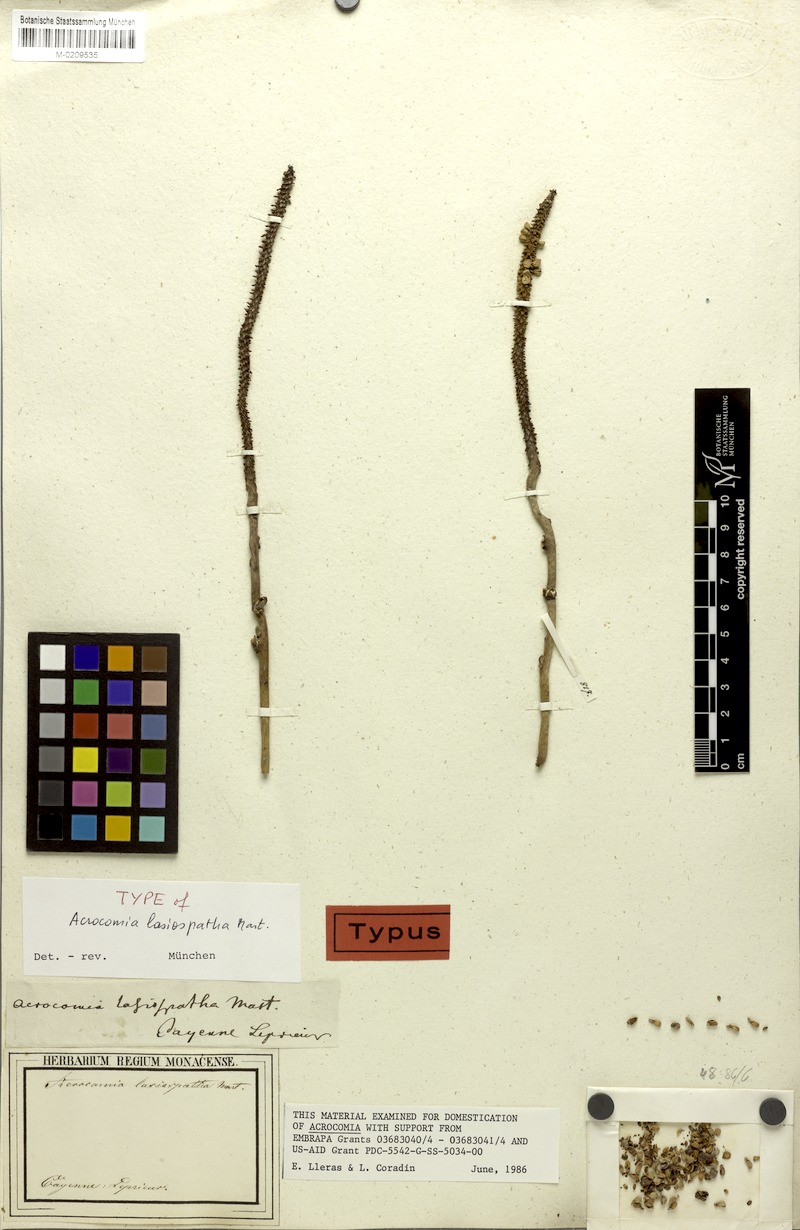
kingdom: Plantae
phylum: Tracheophyta
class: Liliopsida
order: Arecales
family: Arecaceae
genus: Acrocomia
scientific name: Acrocomia aculeata
